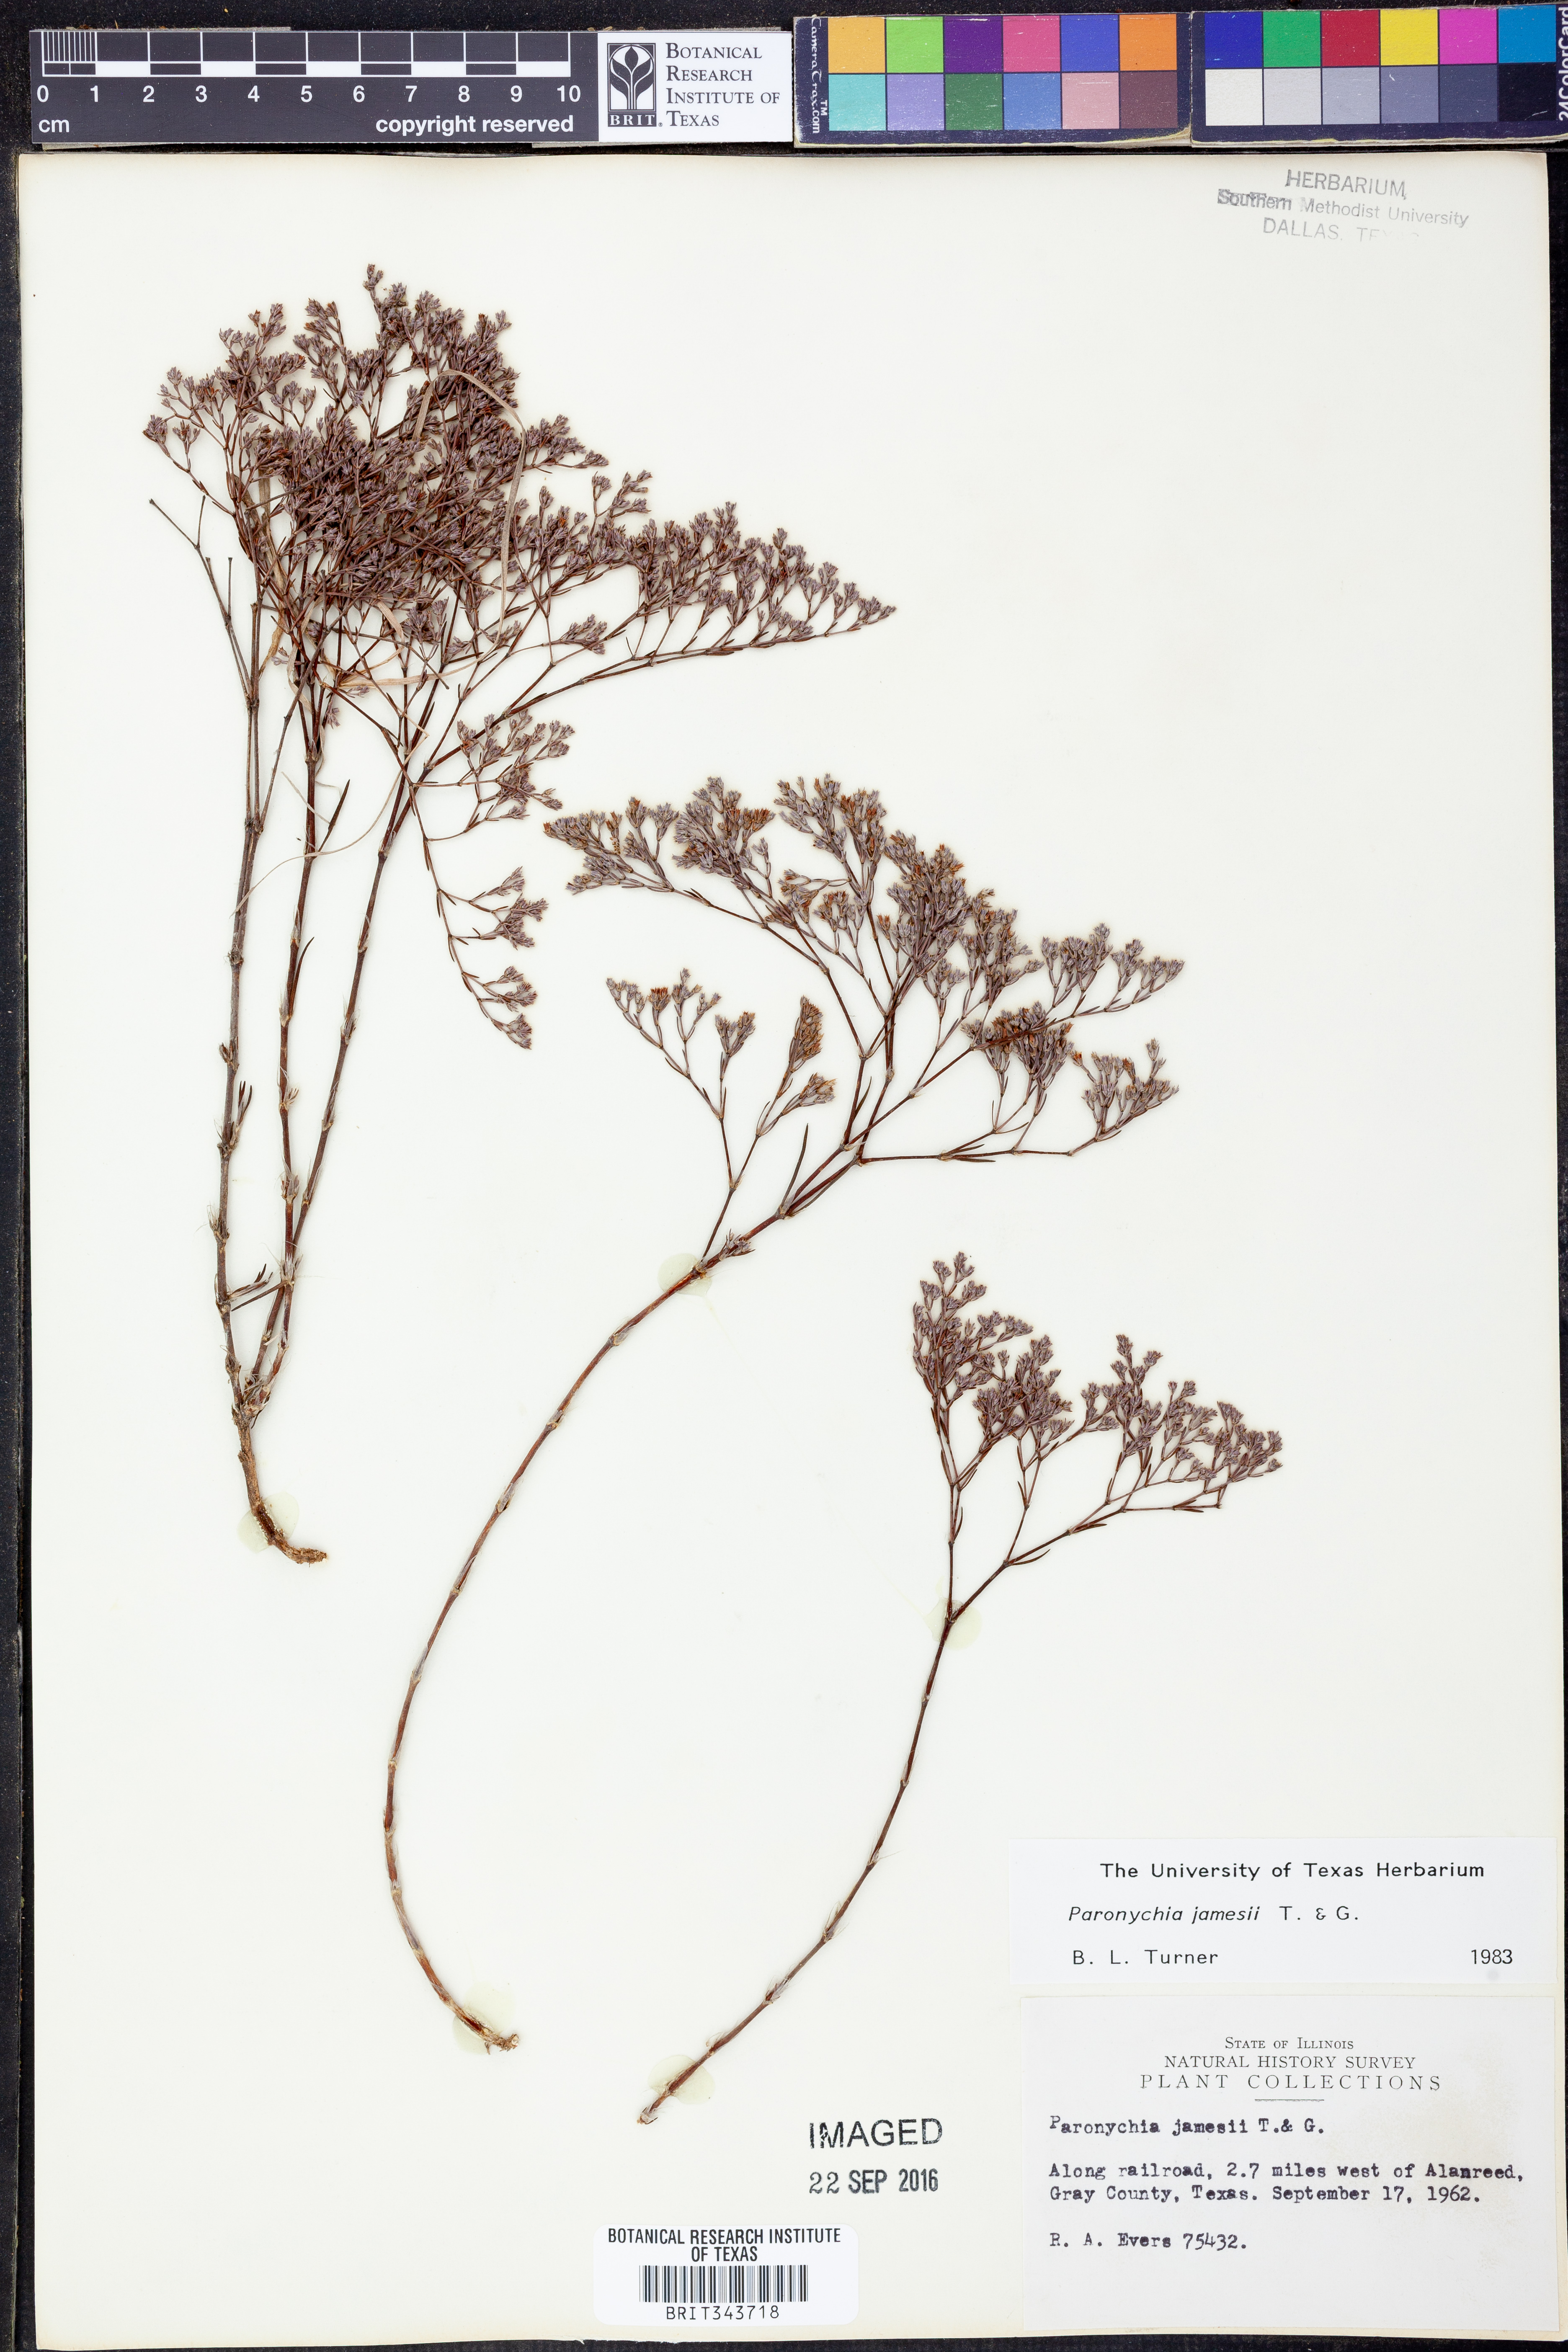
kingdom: Plantae
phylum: Tracheophyta
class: Magnoliopsida
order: Caryophyllales
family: Caryophyllaceae
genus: Paronychia
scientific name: Paronychia jamesii
